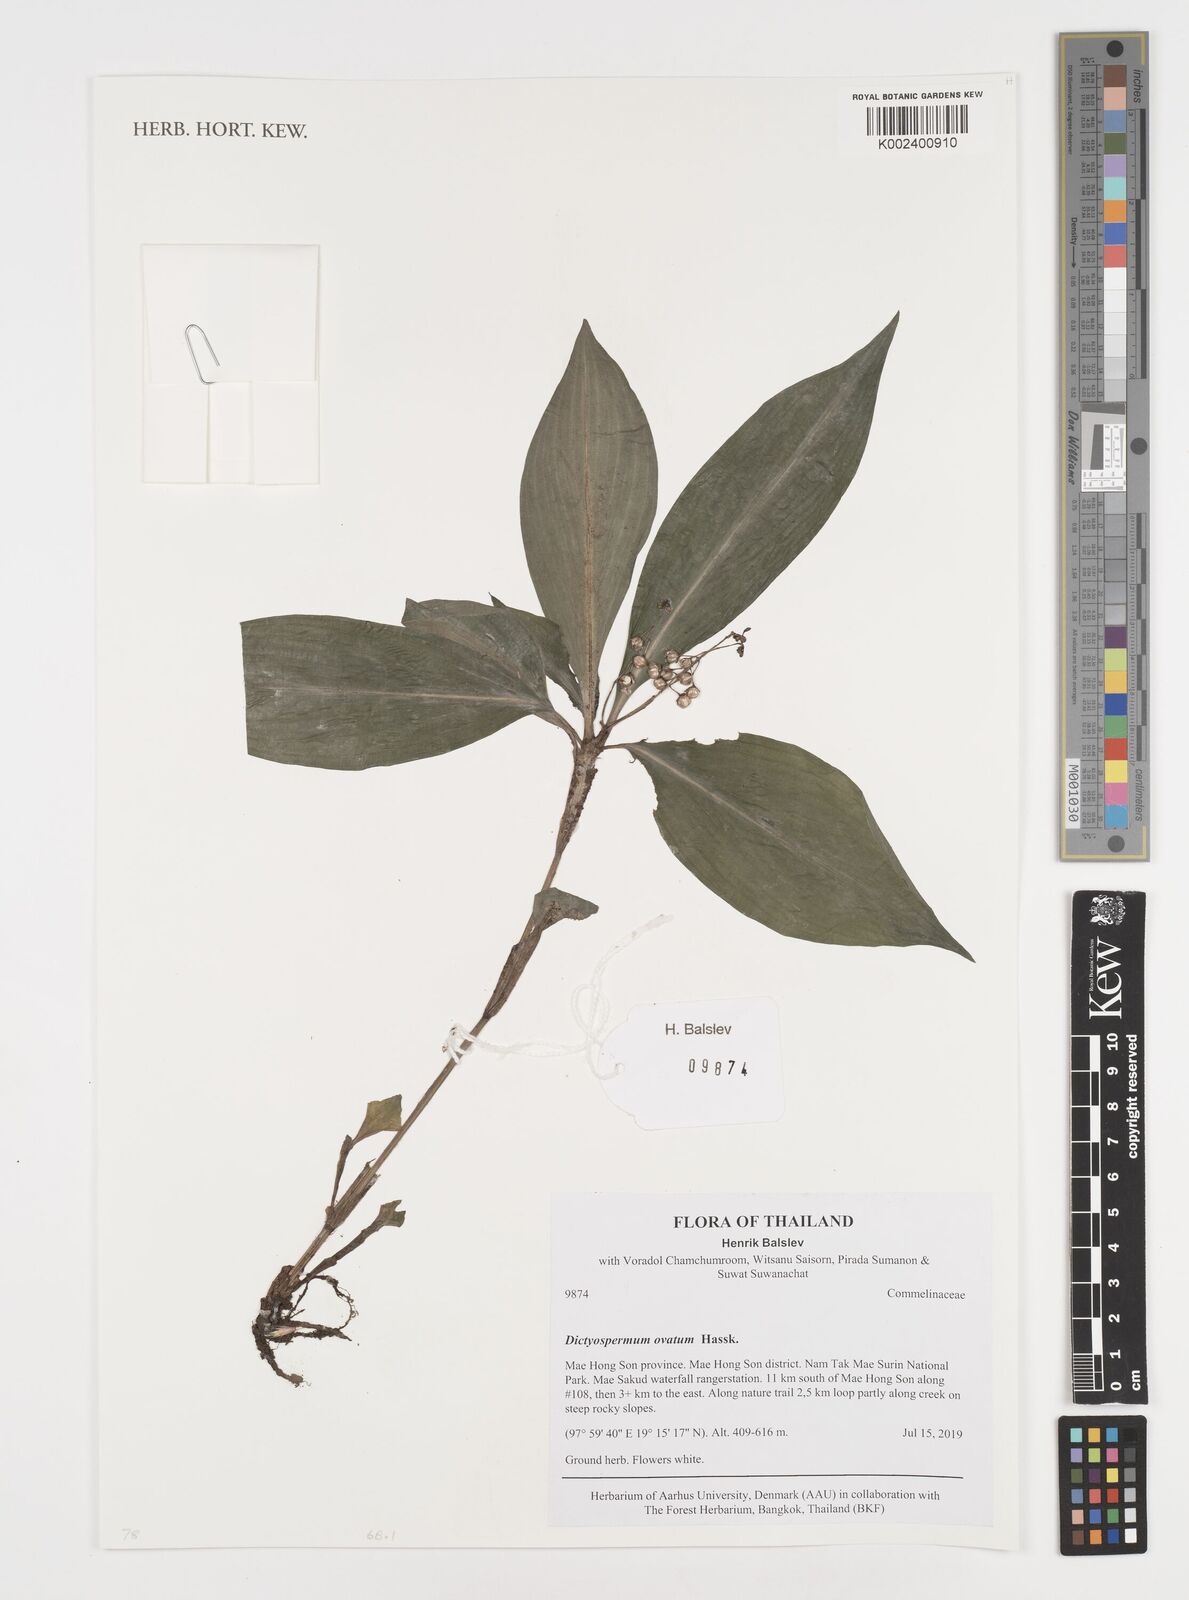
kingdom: Plantae
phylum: Tracheophyta
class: Liliopsida
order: Commelinales
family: Commelinaceae
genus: Dictyospermum
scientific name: Dictyospermum ovatum
